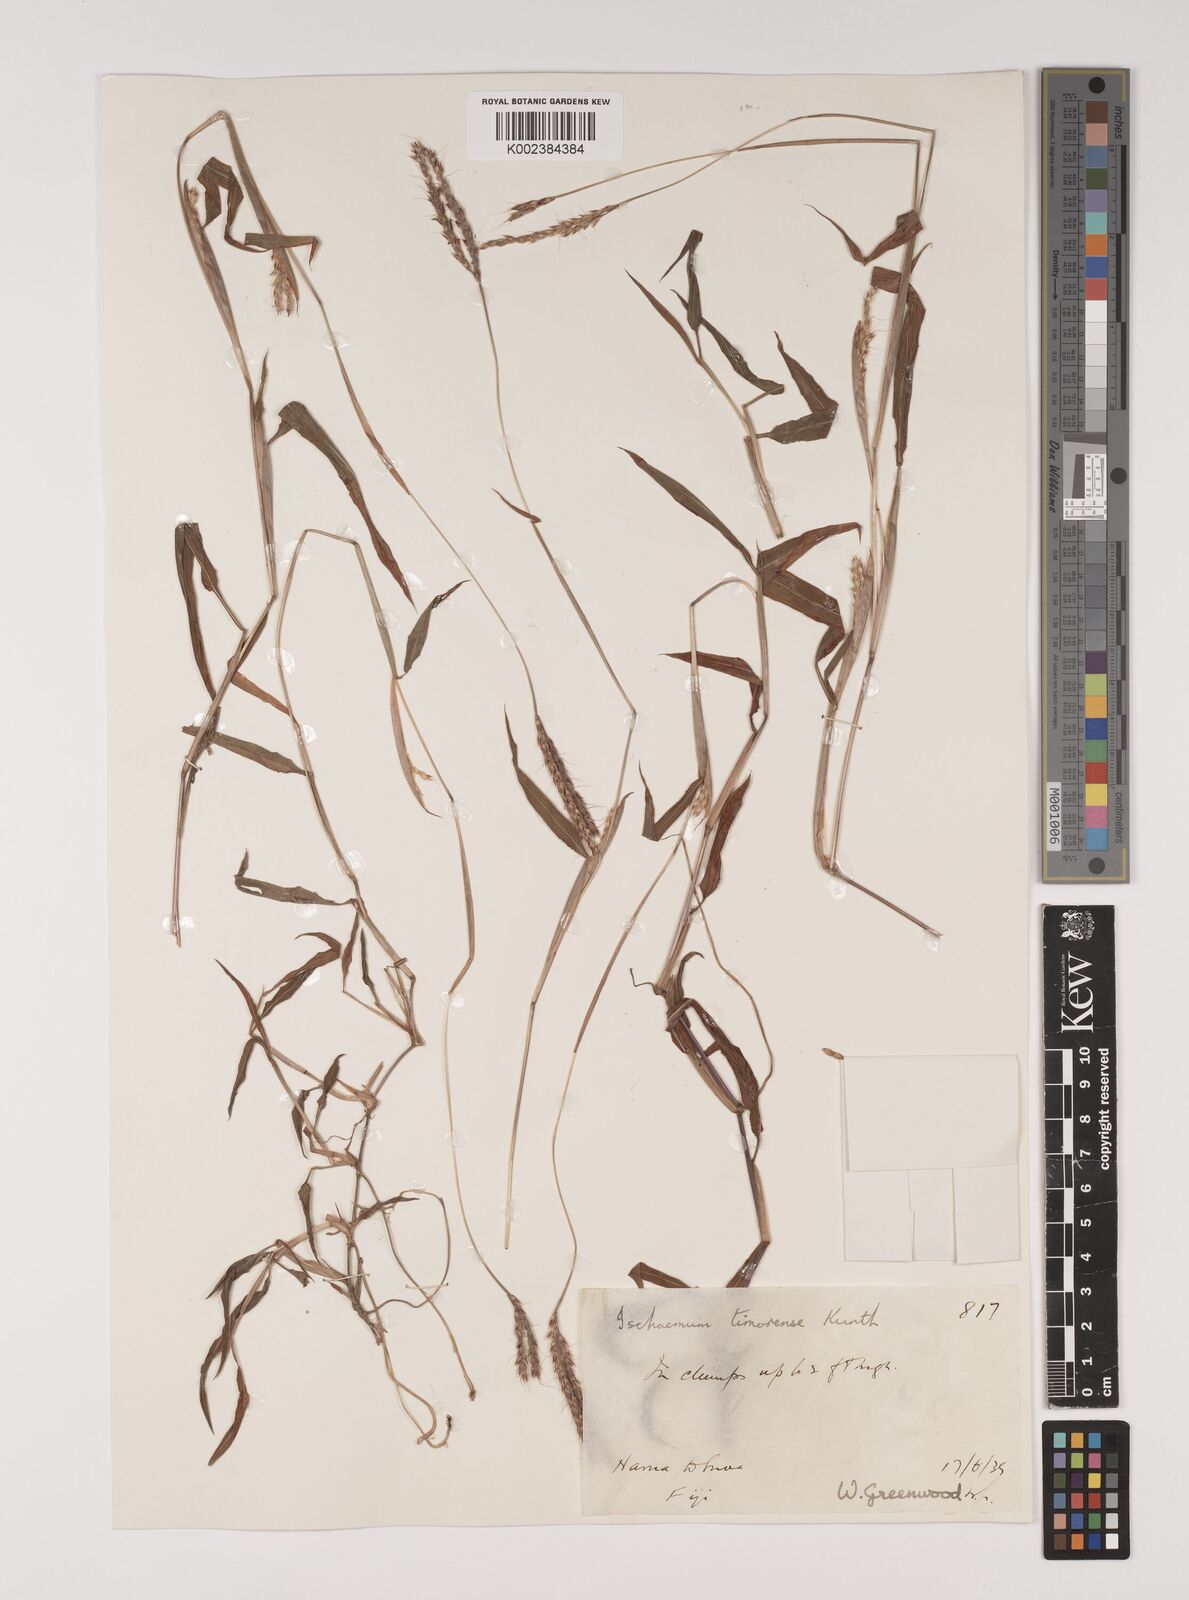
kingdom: Plantae
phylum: Tracheophyta
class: Liliopsida
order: Poales
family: Poaceae
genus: Ischaemum
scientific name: Ischaemum timorense
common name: Stalkleaf murainagrass
